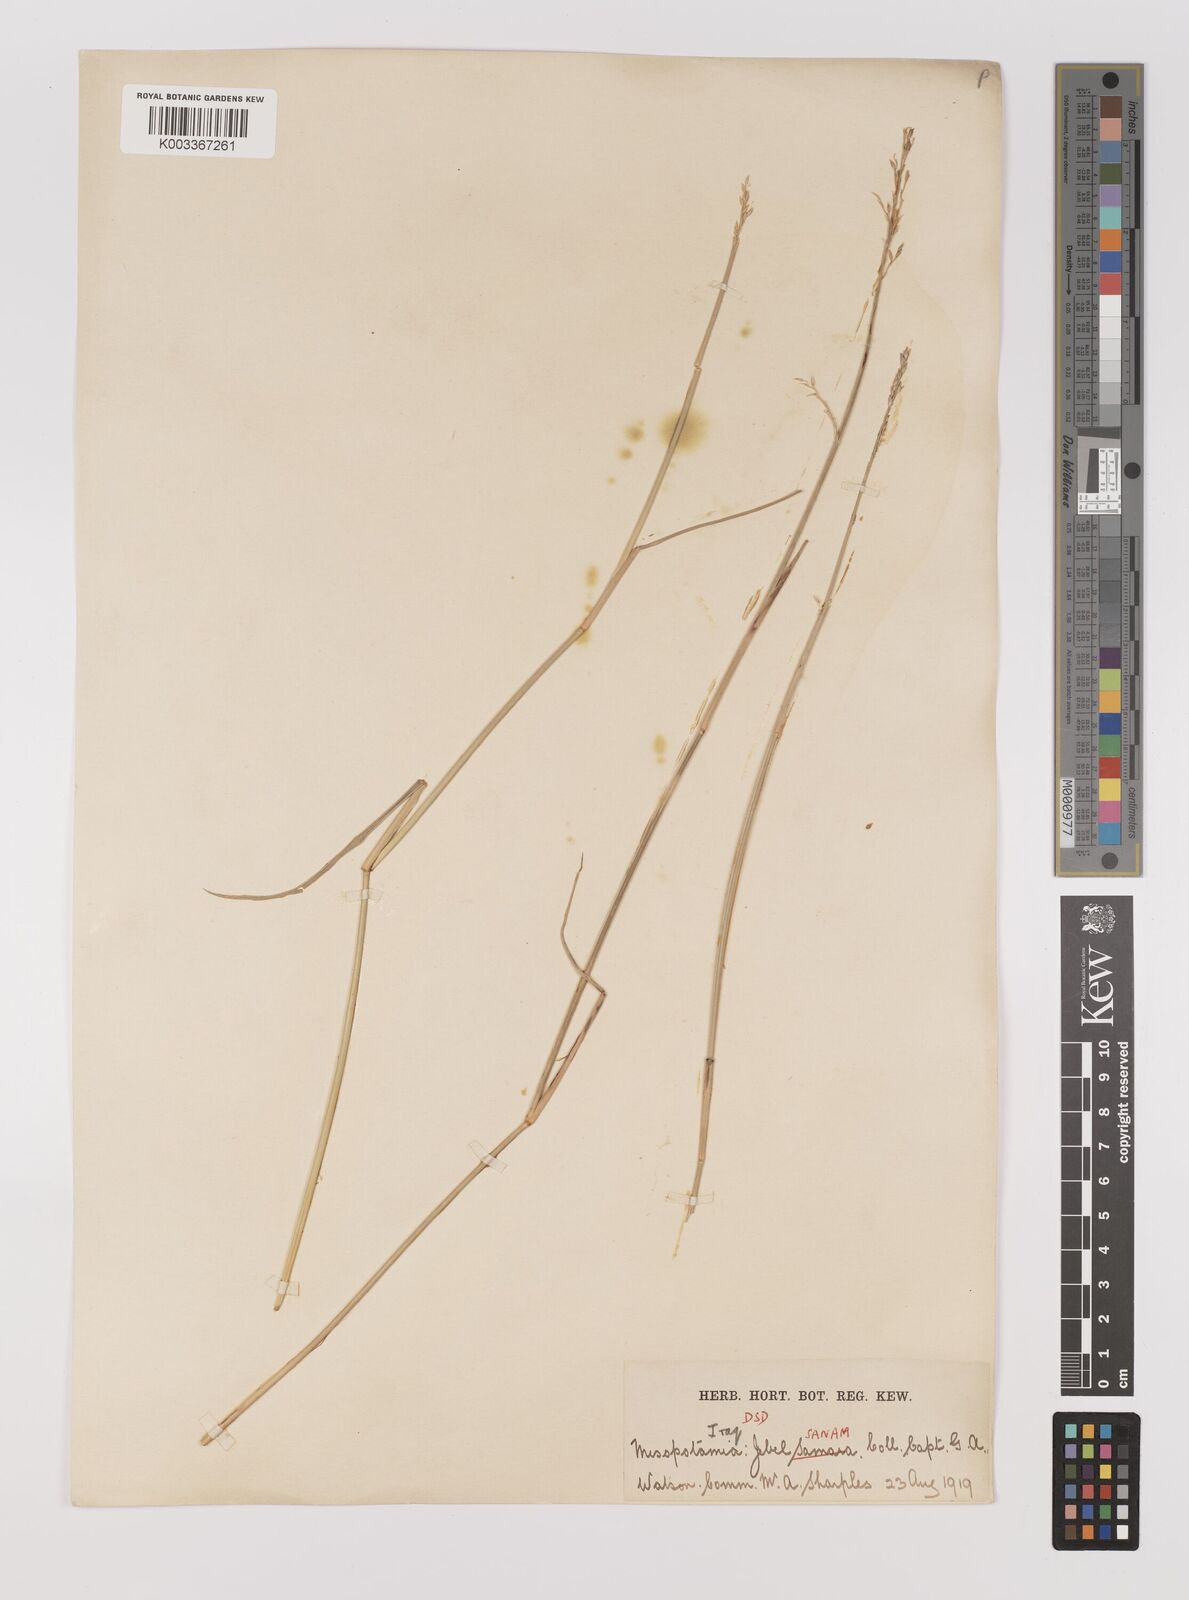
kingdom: Plantae
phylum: Tracheophyta
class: Liliopsida
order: Poales
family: Poaceae
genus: Panicum
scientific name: Panicum turgidum
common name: Desert grass
